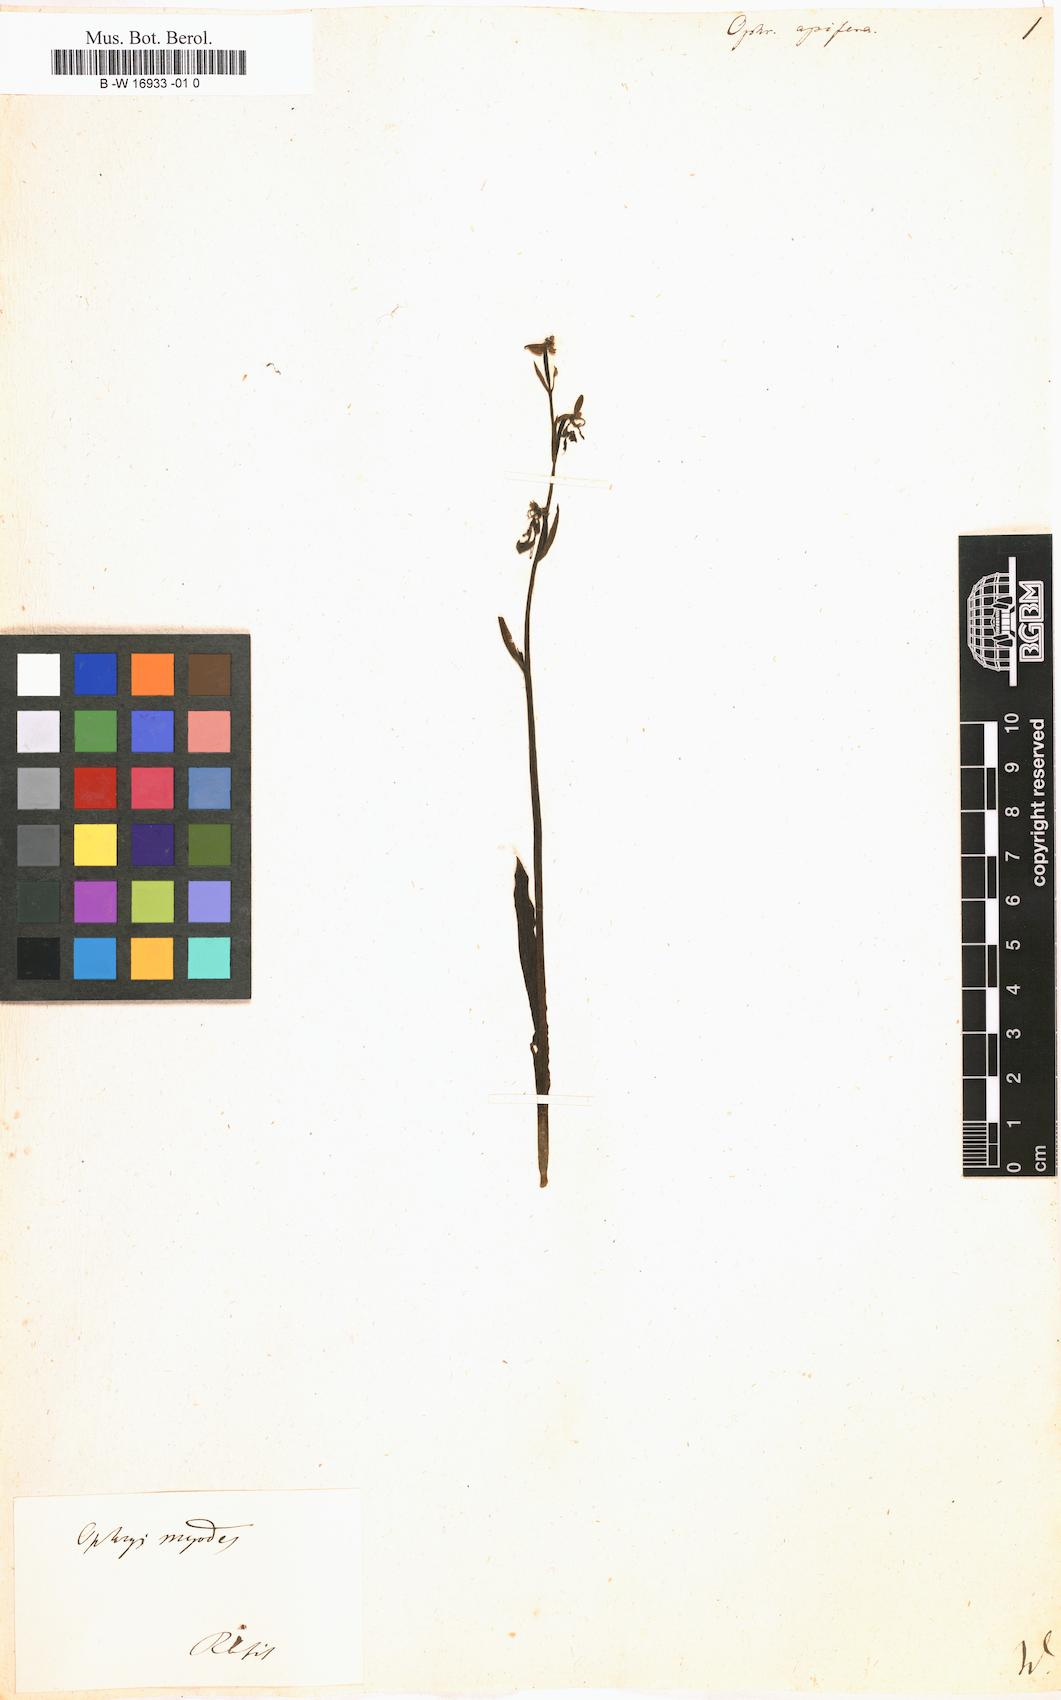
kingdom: Plantae
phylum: Tracheophyta
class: Liliopsida
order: Asparagales
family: Orchidaceae
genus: Ophrys
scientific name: Ophrys apifera
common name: Bee orchid
